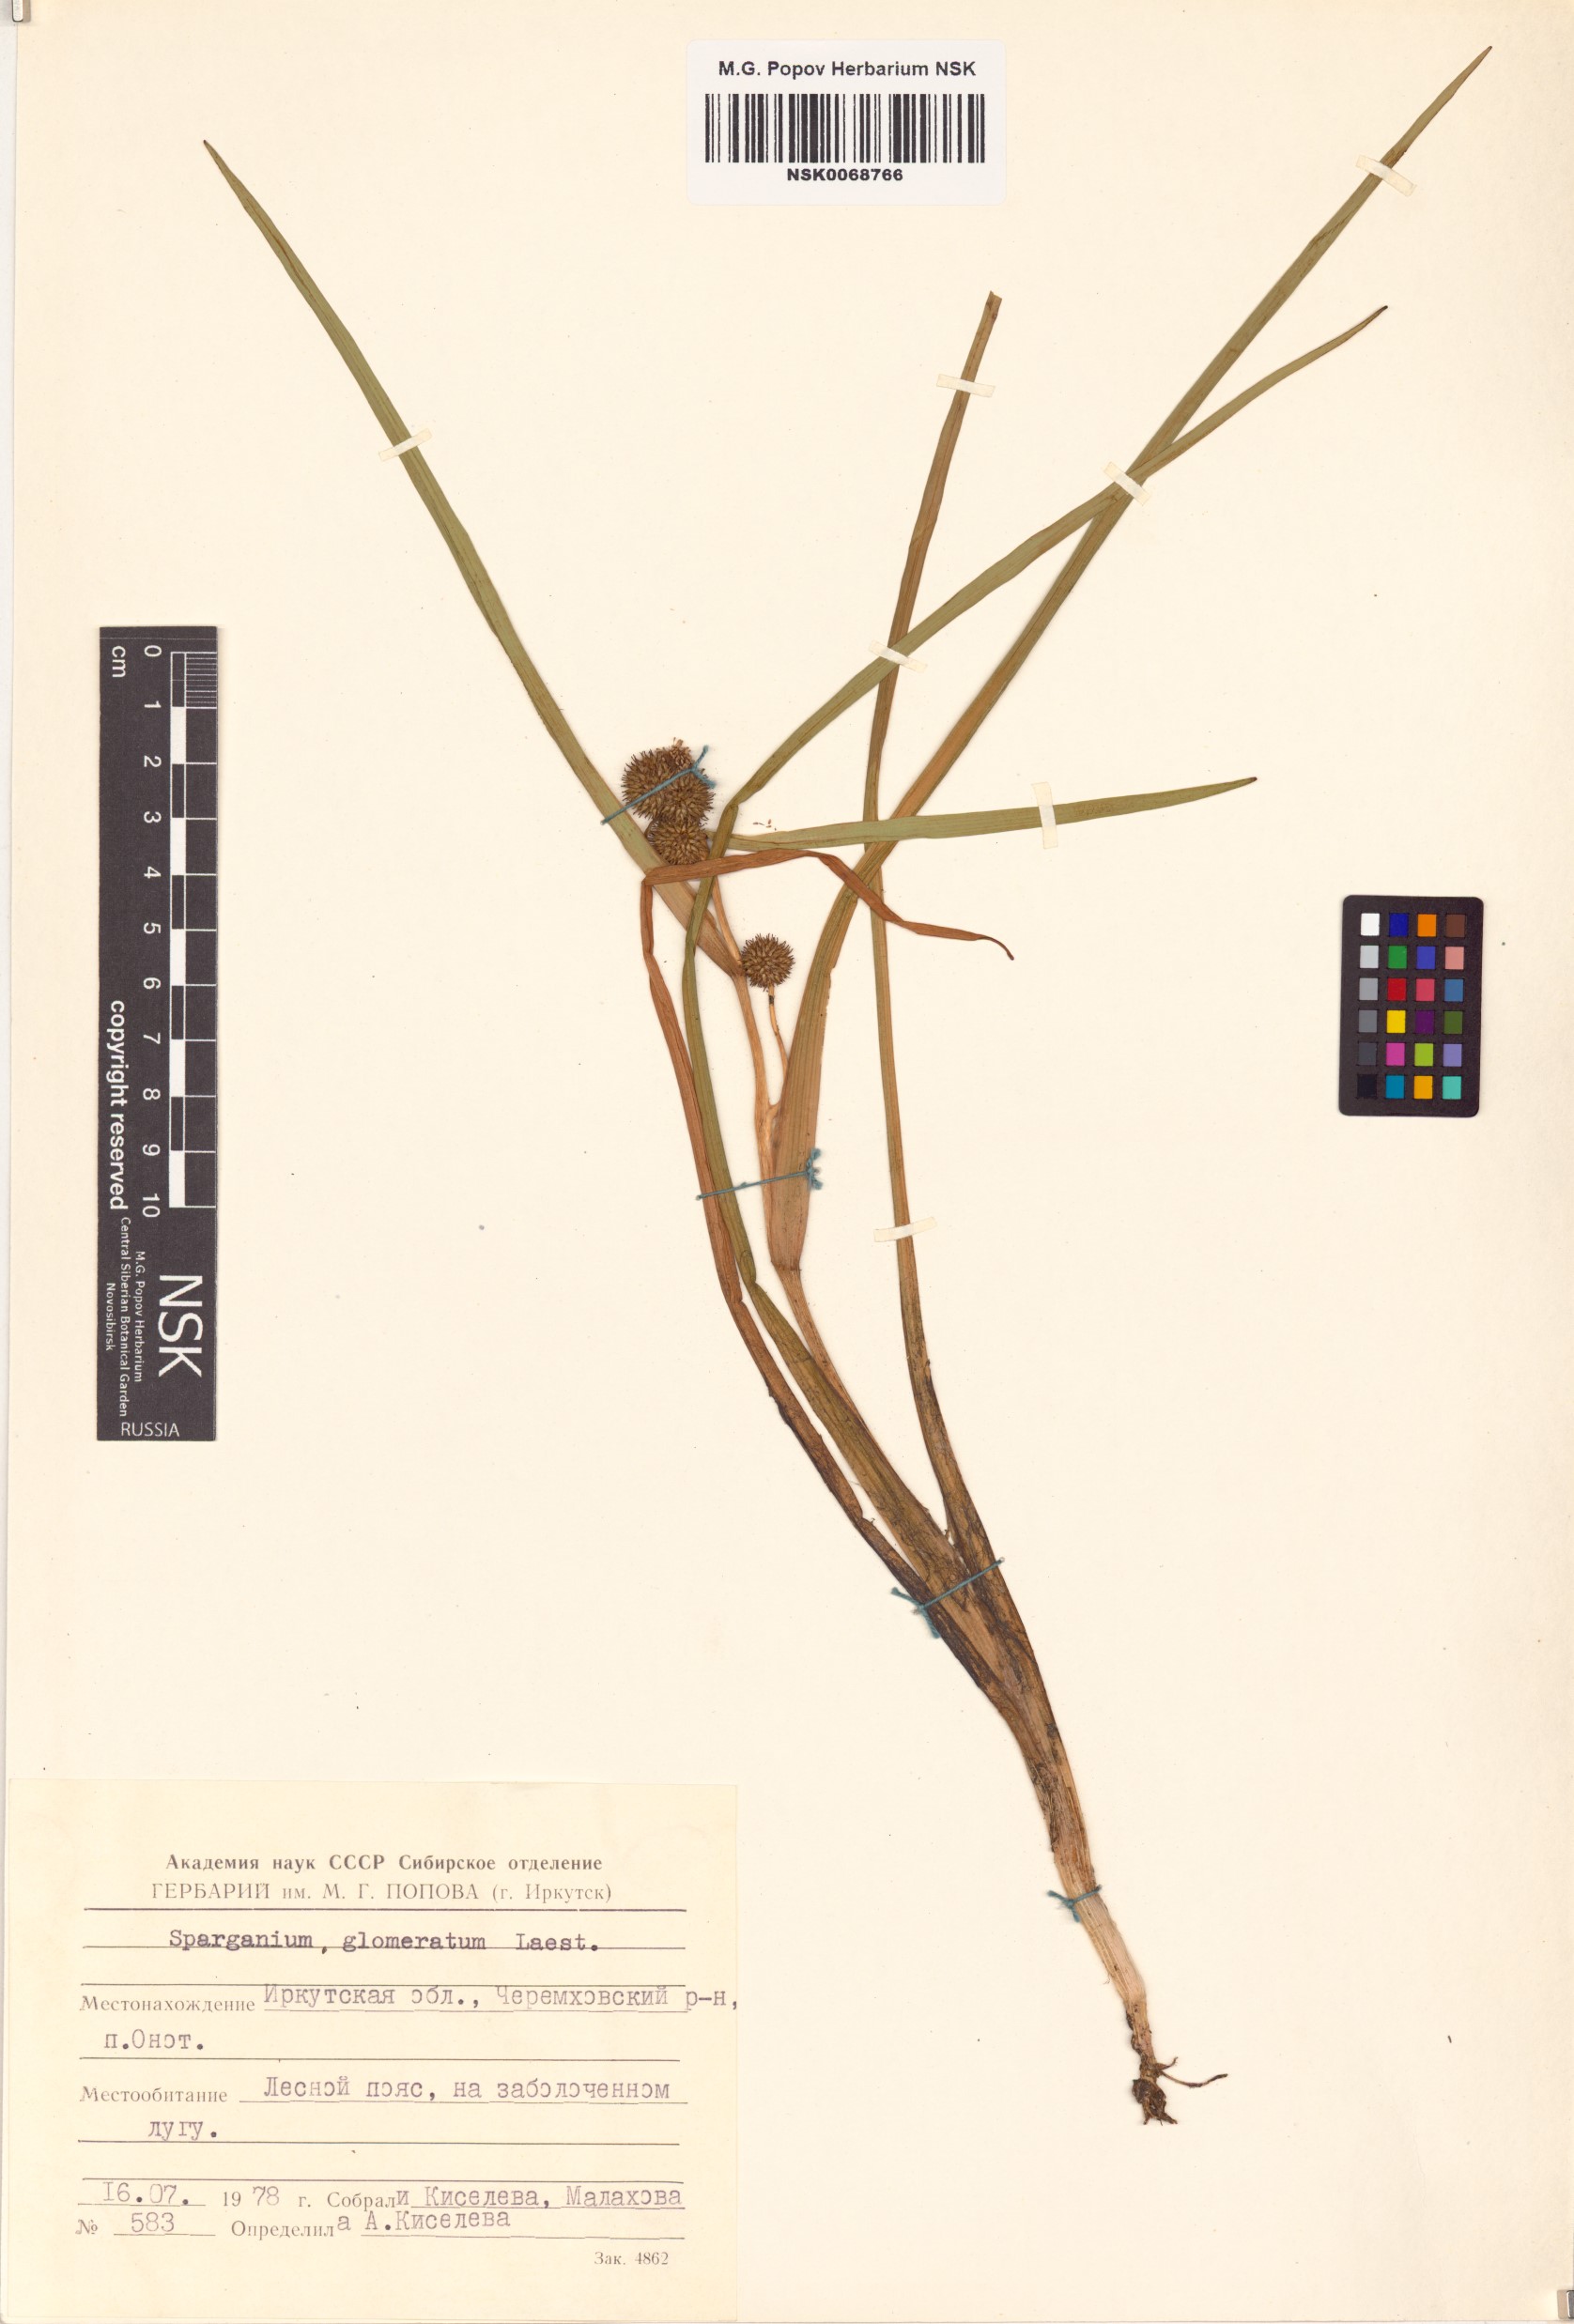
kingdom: Plantae
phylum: Tracheophyta
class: Liliopsida
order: Poales
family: Typhaceae
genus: Sparganium
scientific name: Sparganium glomeratum
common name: Clustered burreed
